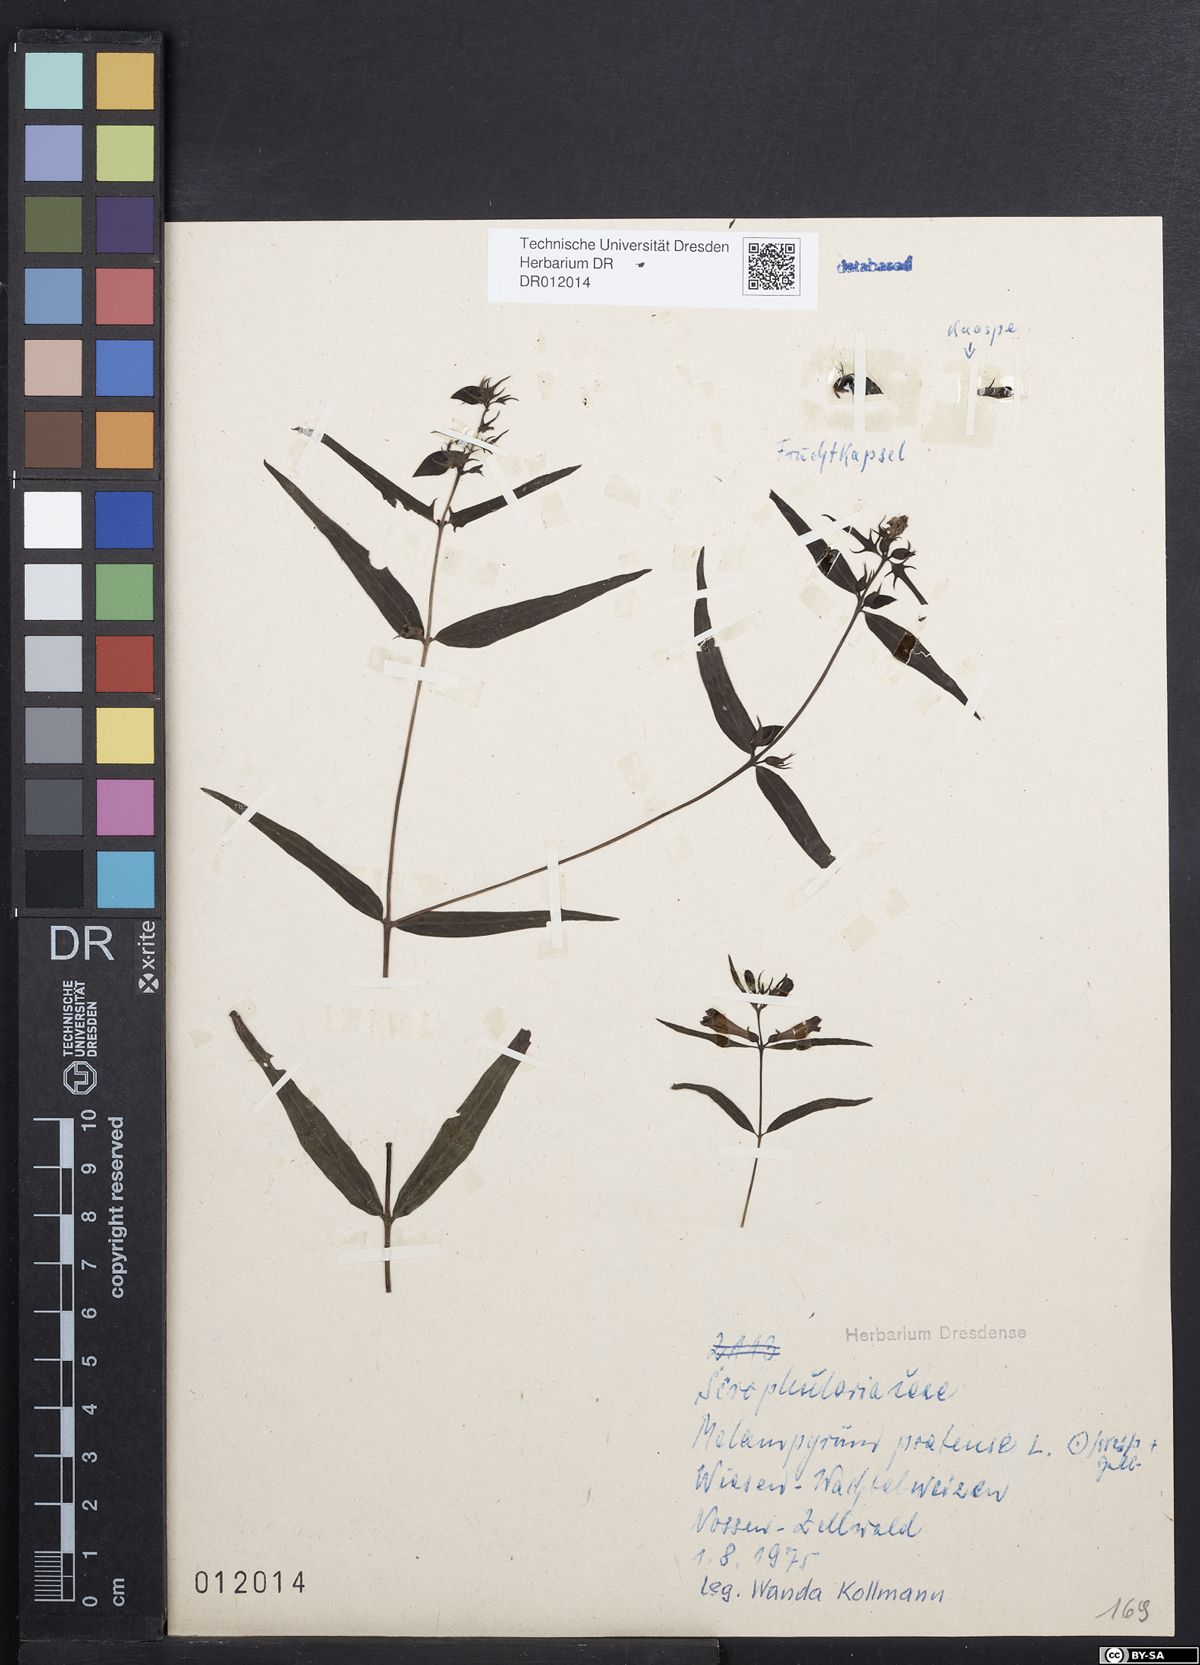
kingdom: Plantae
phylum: Tracheophyta
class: Magnoliopsida
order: Lamiales
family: Orobanchaceae
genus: Melampyrum
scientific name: Melampyrum pratense
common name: Common cow-wheat
